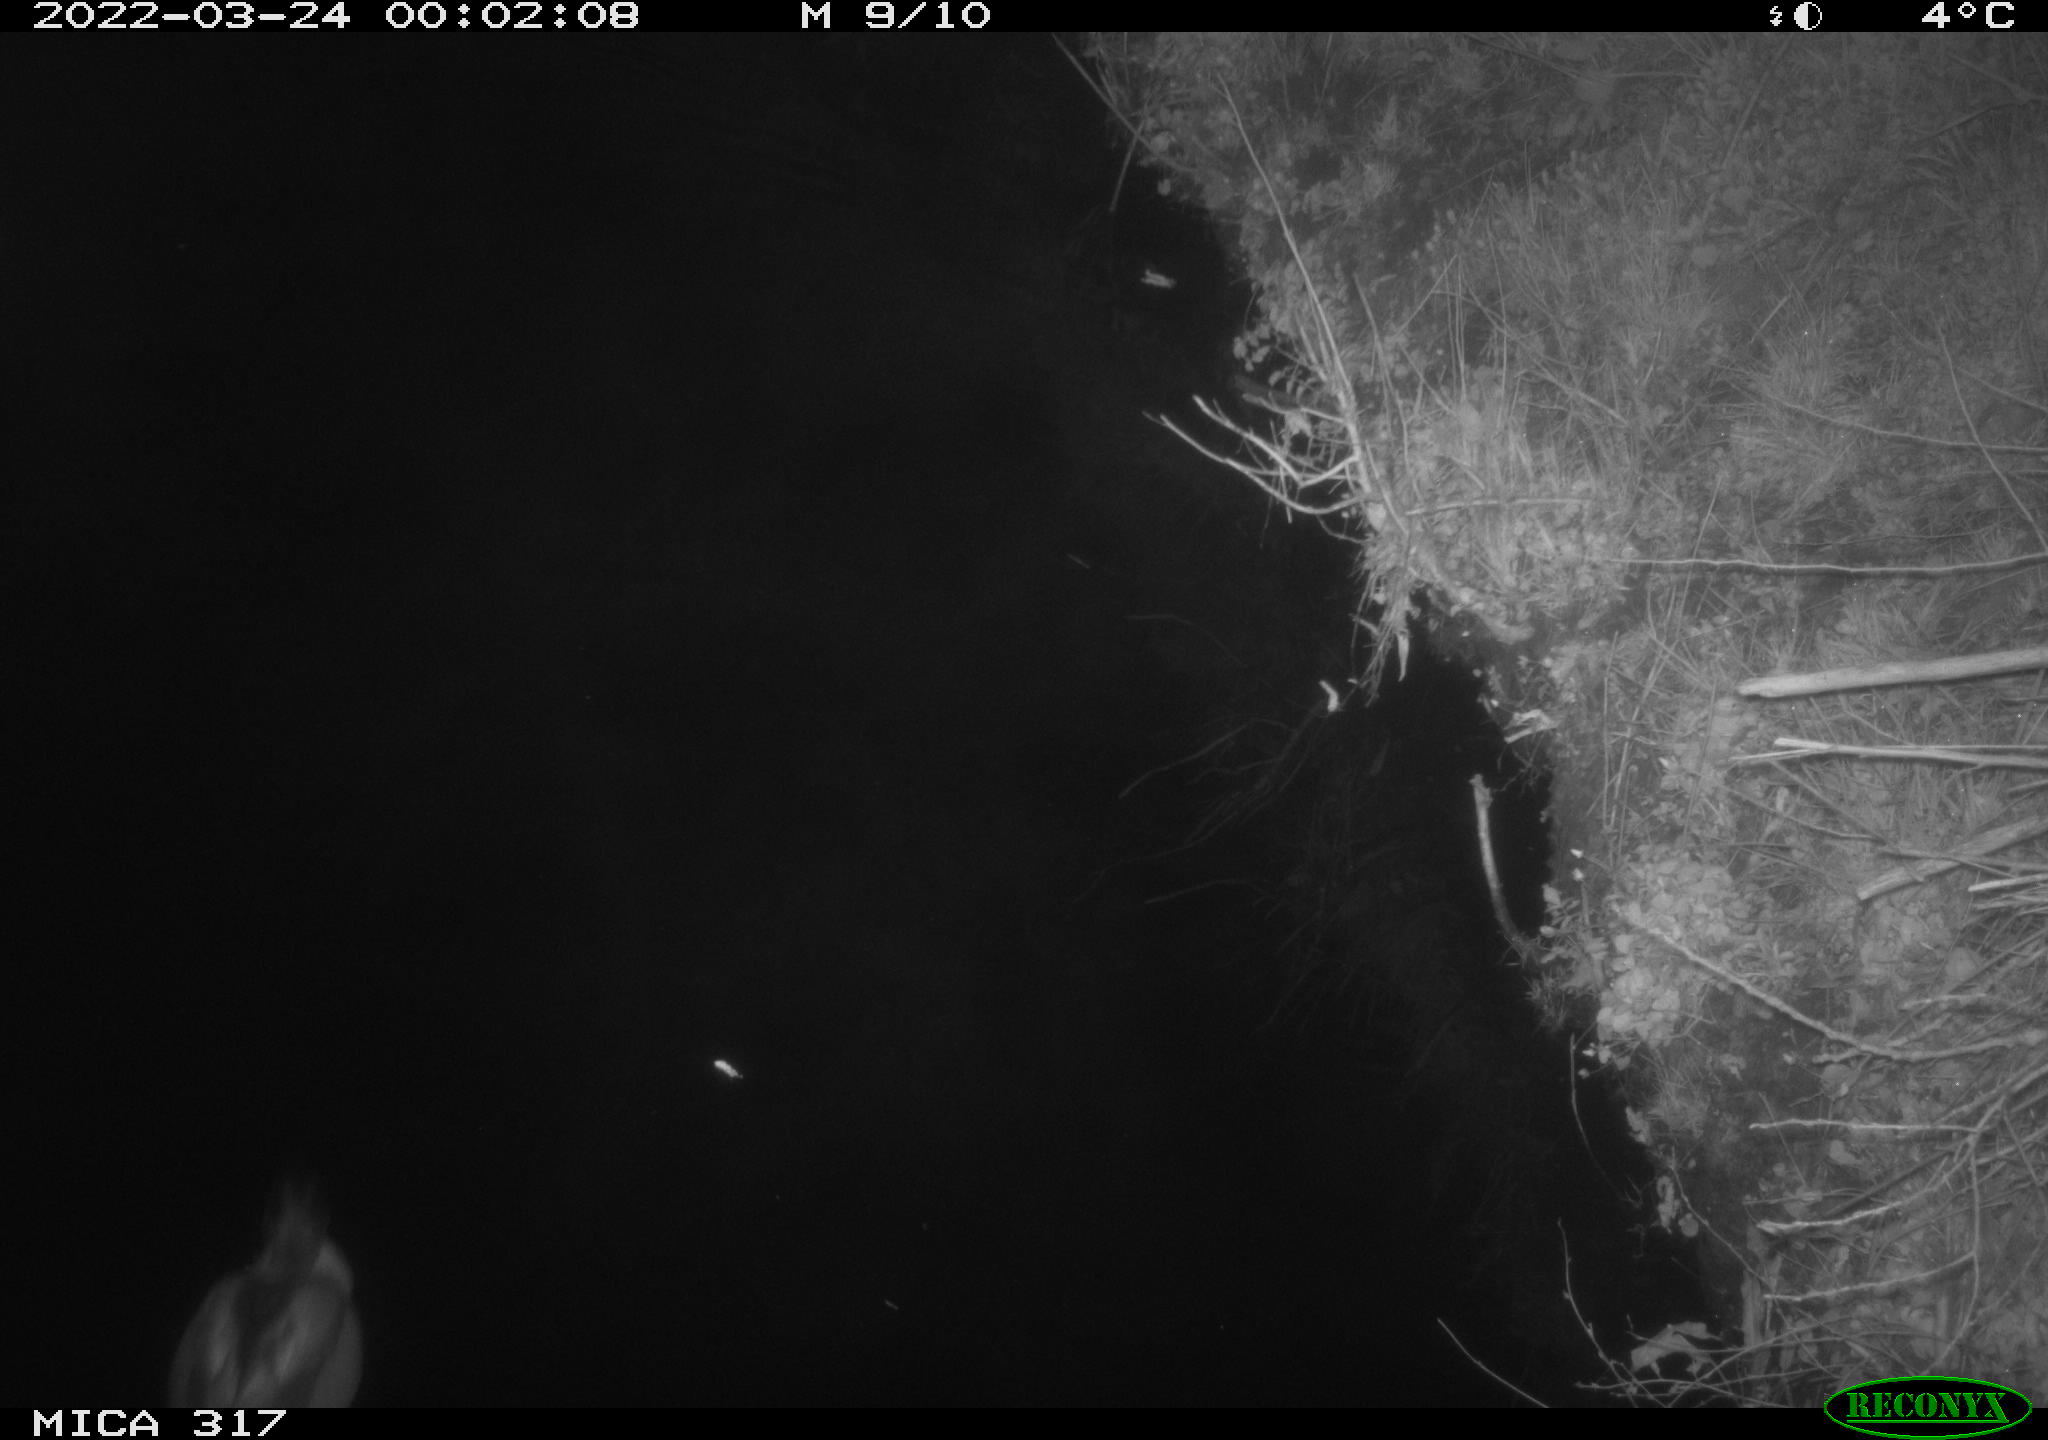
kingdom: Animalia
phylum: Chordata
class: Aves
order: Anseriformes
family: Anatidae
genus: Anas
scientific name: Anas platyrhynchos
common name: Mallard
